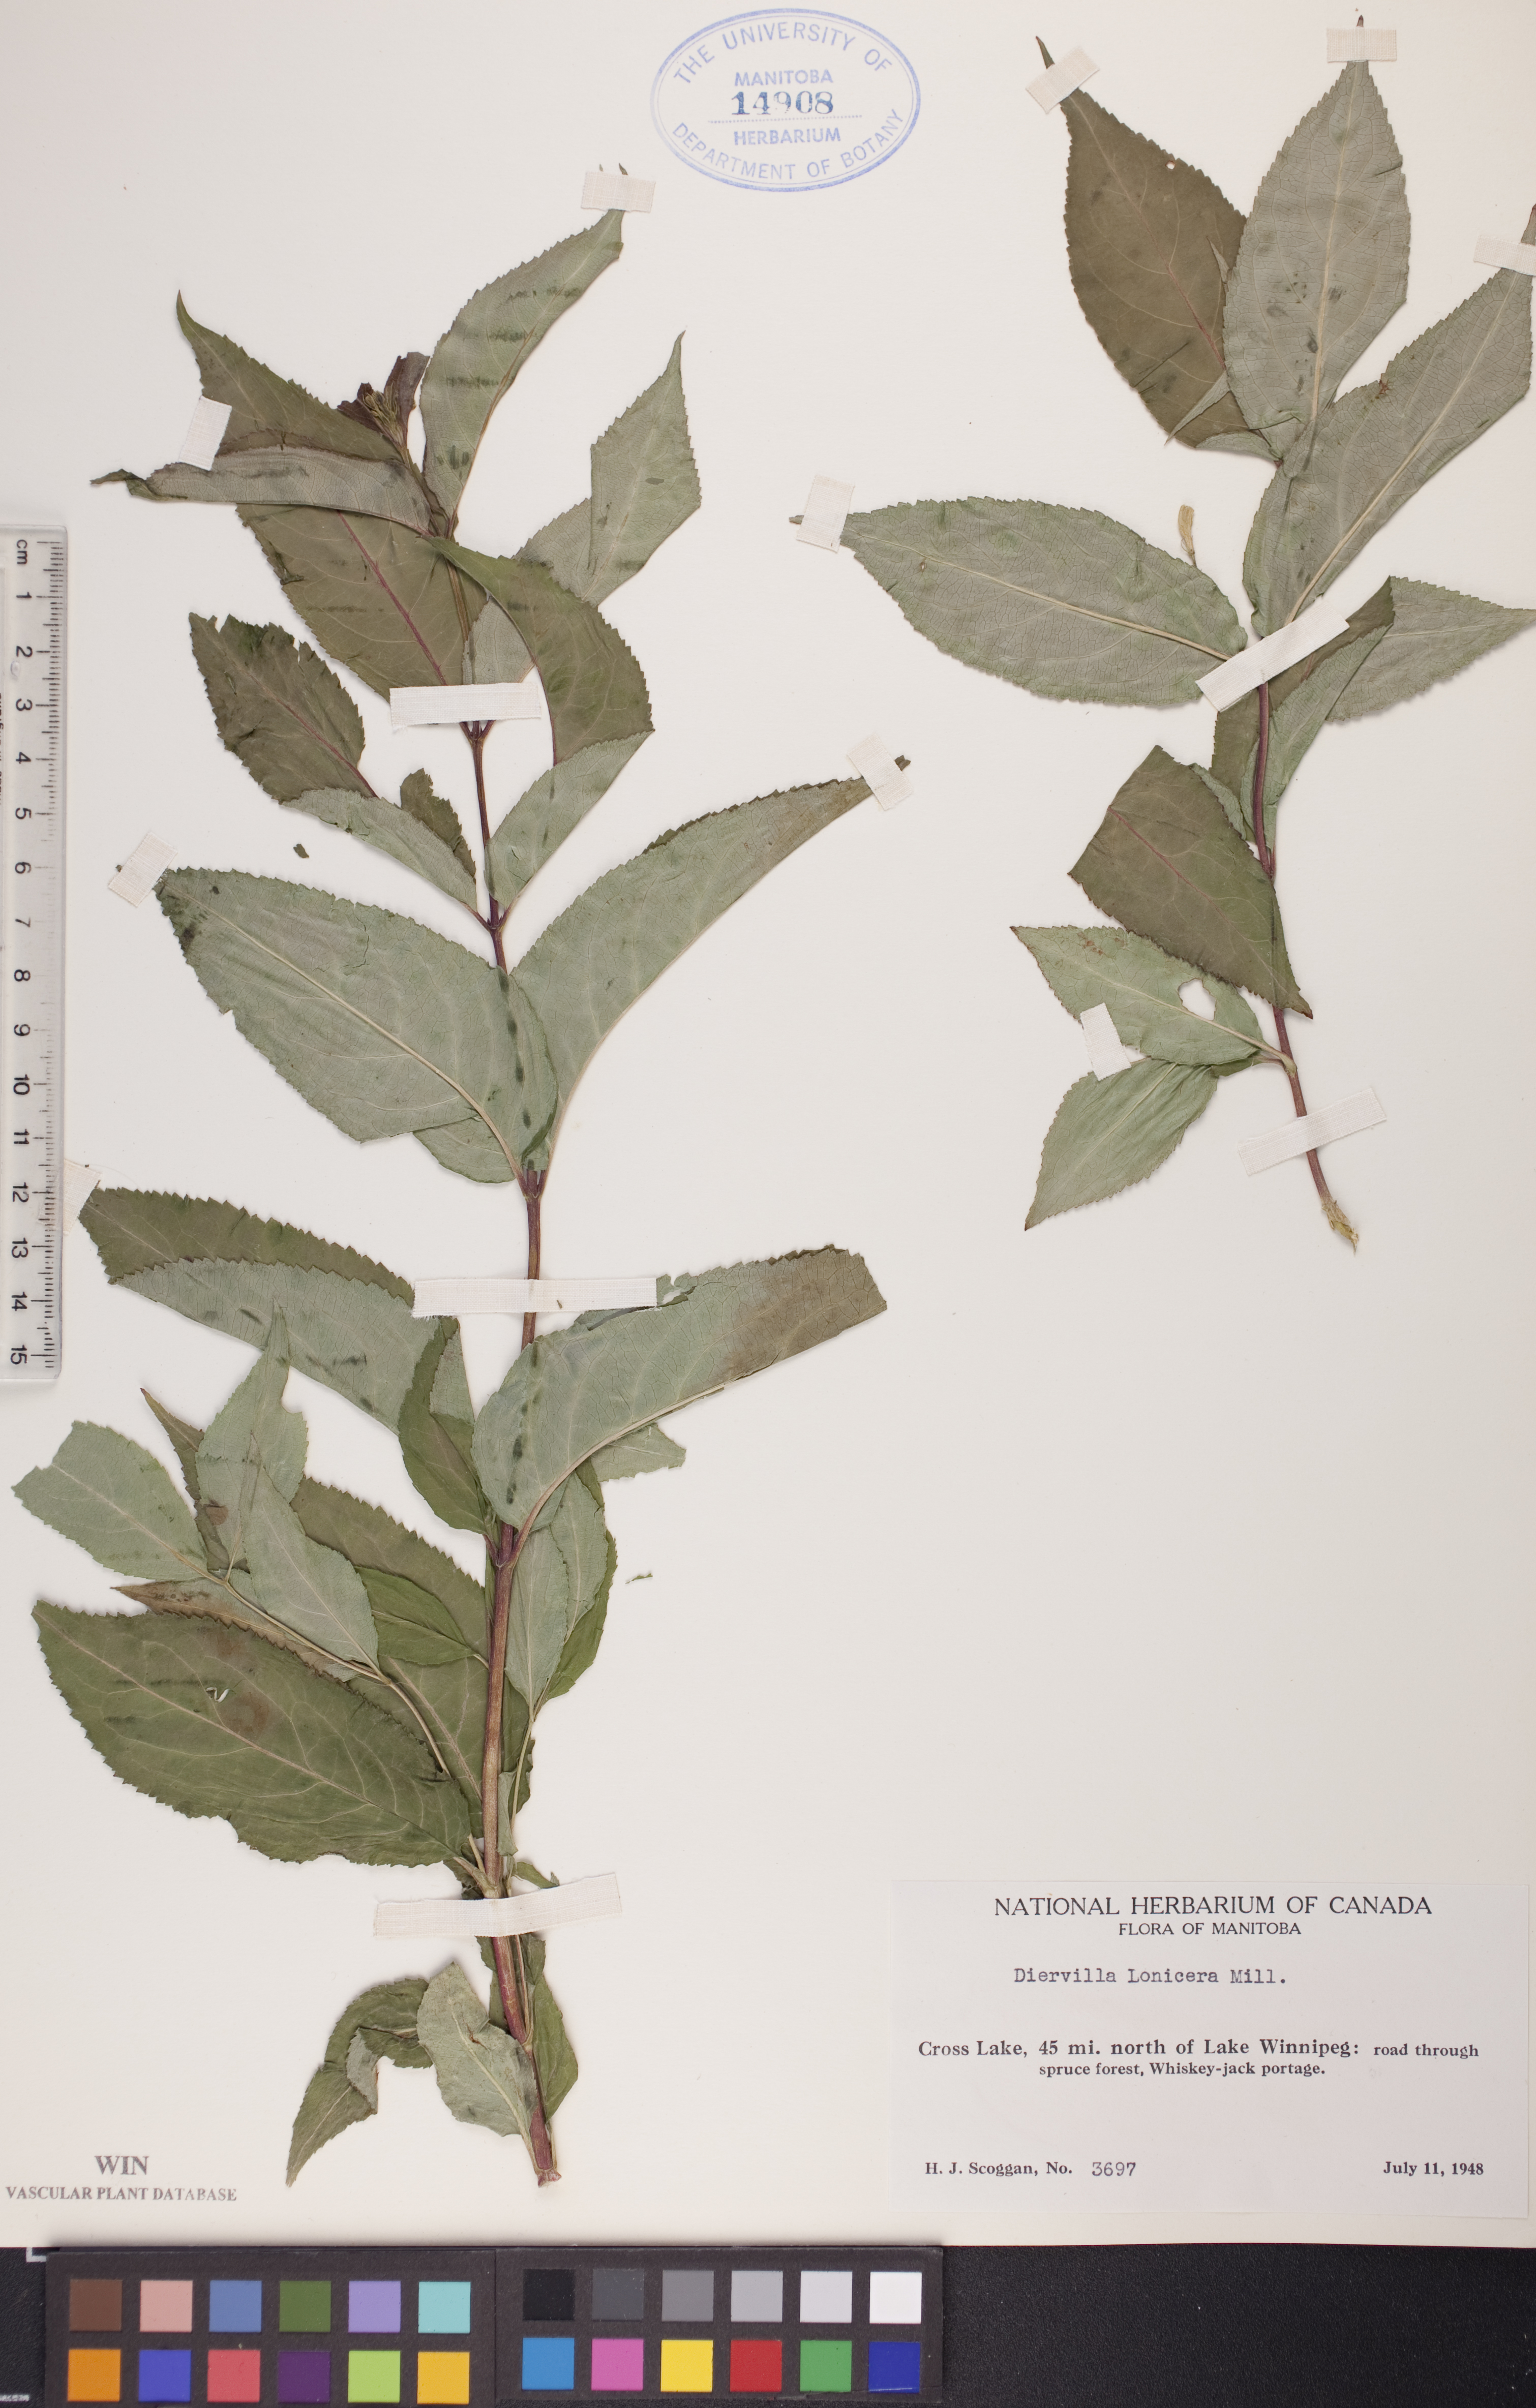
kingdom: Plantae
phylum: Tracheophyta
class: Magnoliopsida
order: Dipsacales
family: Caprifoliaceae
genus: Diervilla
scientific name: Diervilla lonicera
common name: Bush-honeysuckle
